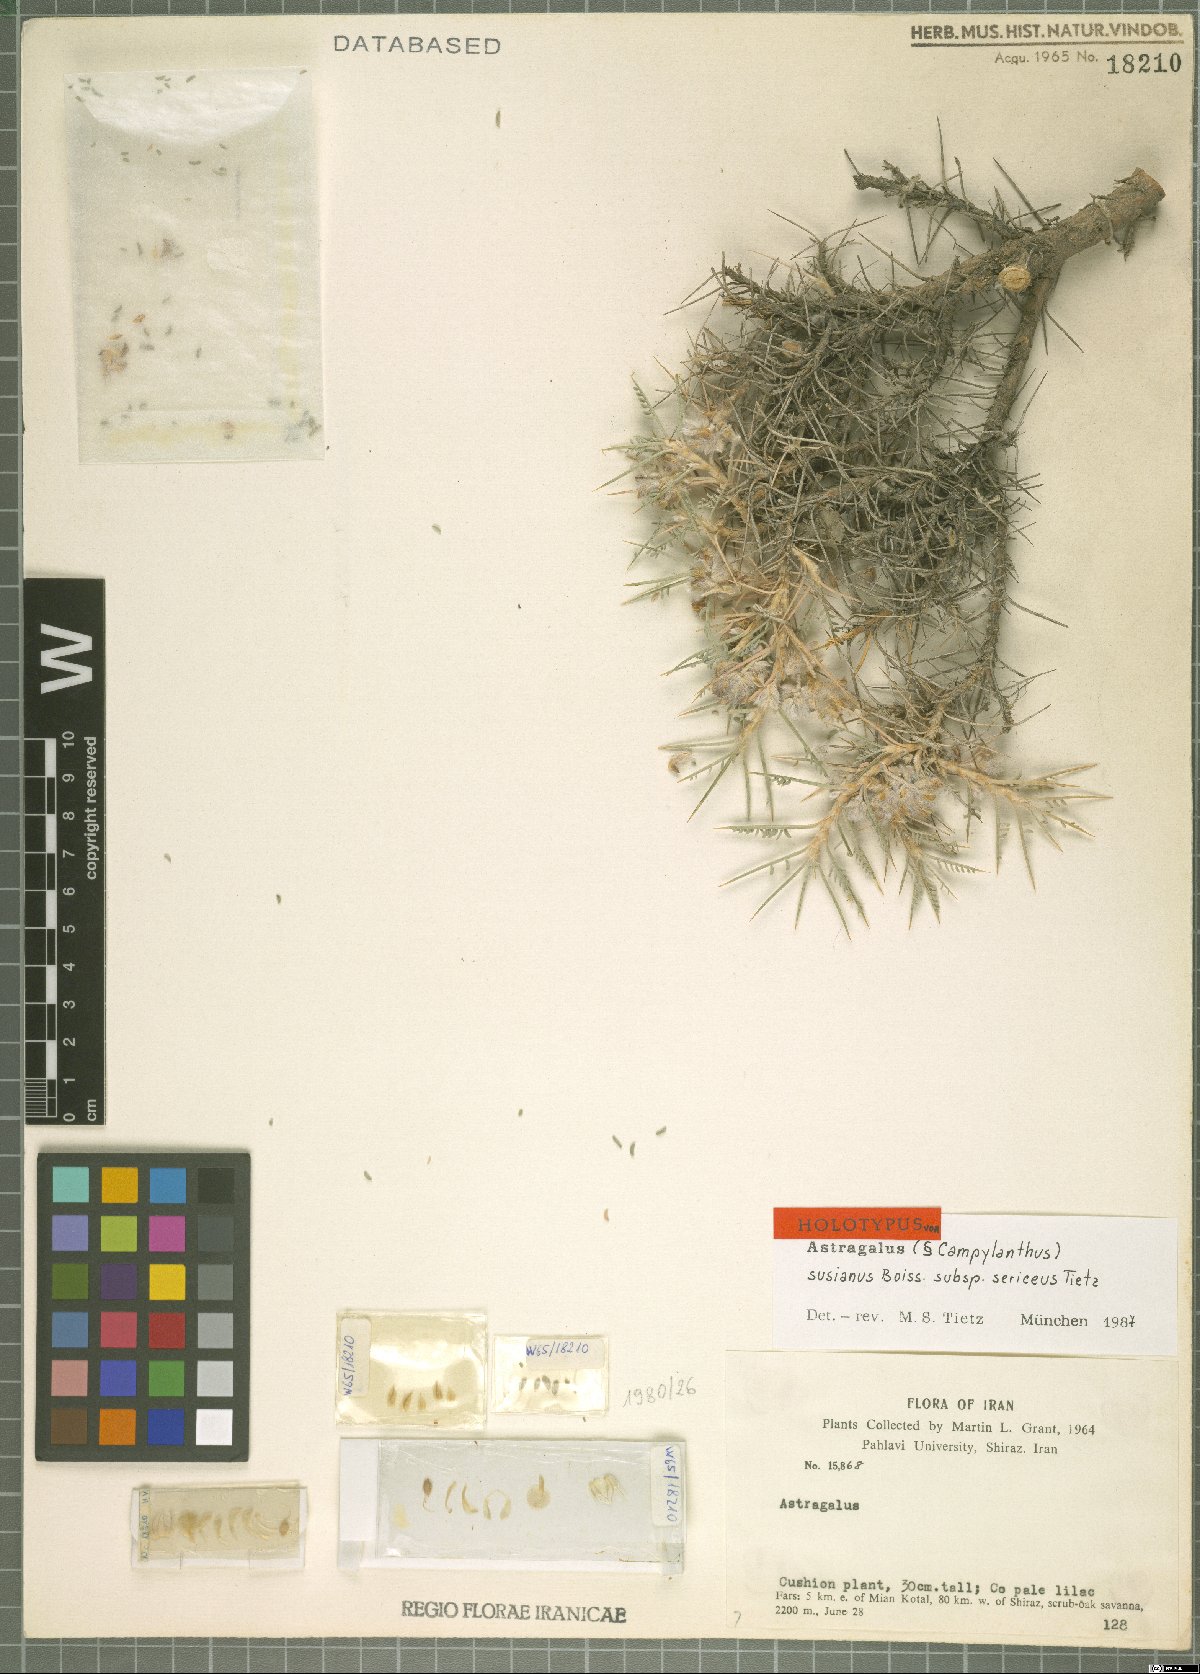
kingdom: Plantae
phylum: Tracheophyta
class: Magnoliopsida
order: Fabales
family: Fabaceae
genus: Astragalus
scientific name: Astragalus chalaranthus
